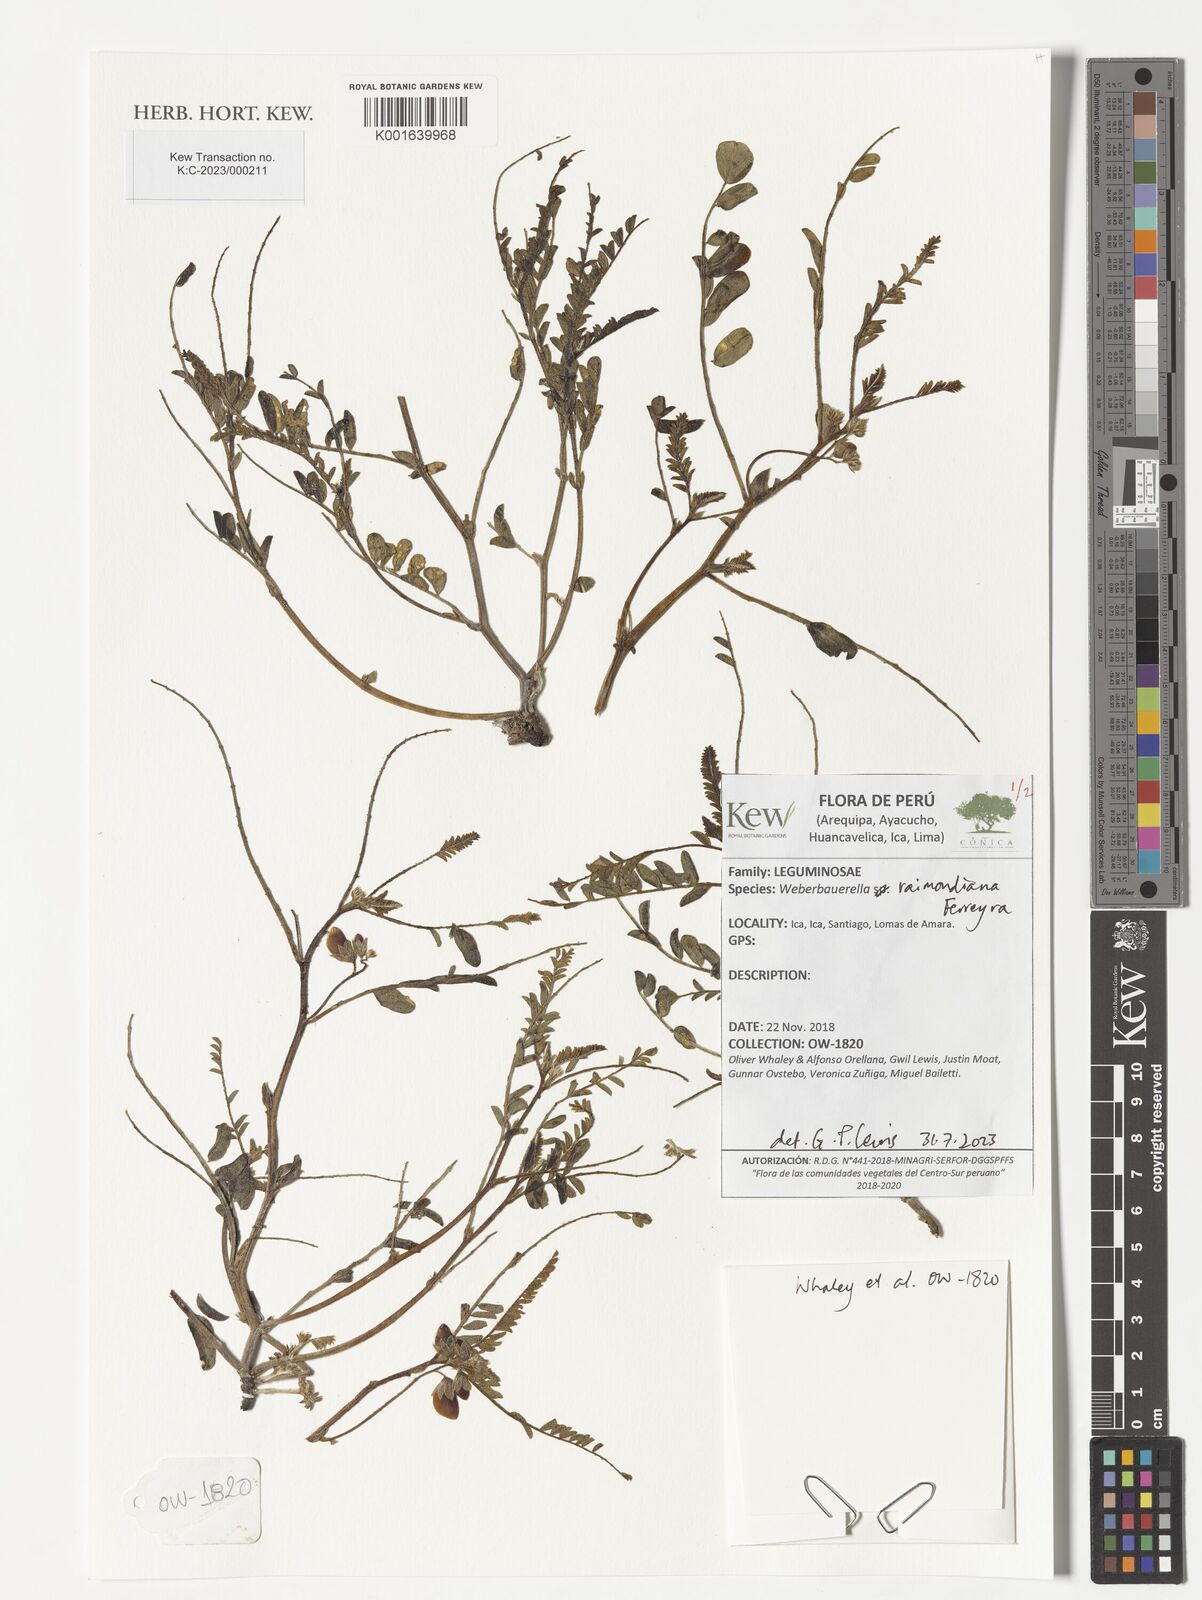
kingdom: Plantae
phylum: Tracheophyta
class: Magnoliopsida
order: Fabales
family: Fabaceae
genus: Weberbauerella
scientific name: Weberbauerella raimondiana
